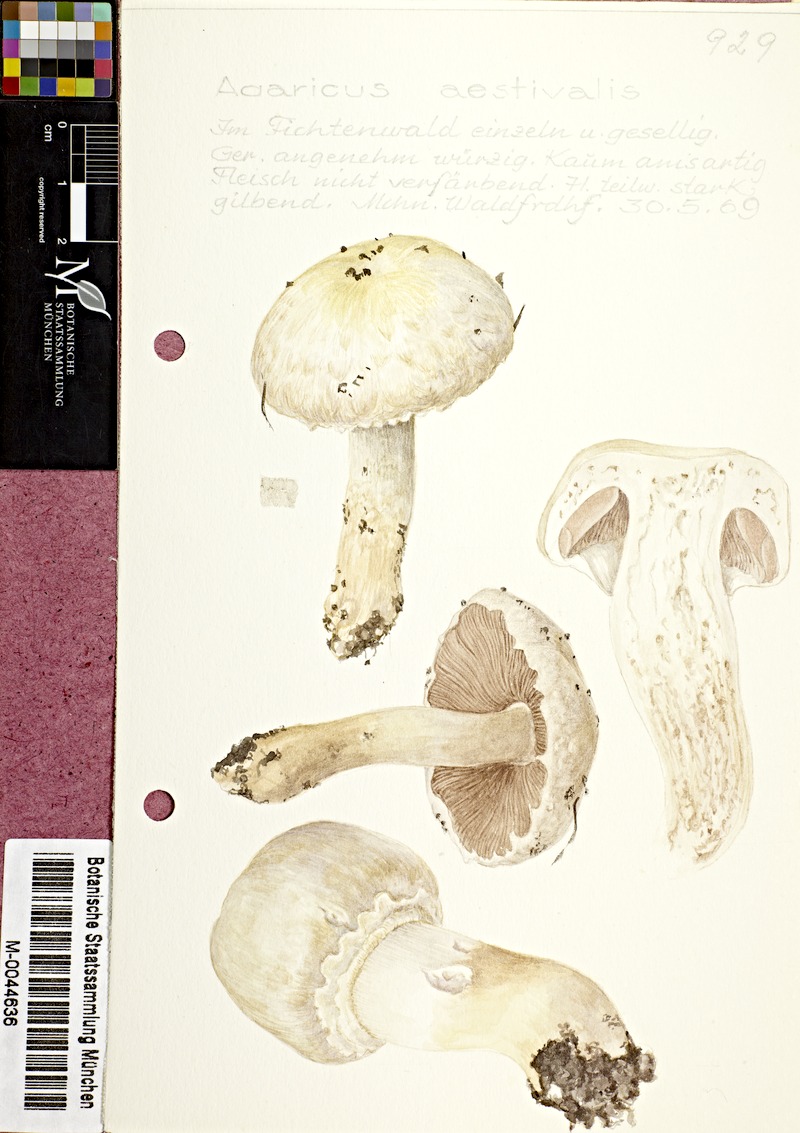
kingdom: Fungi
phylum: Basidiomycota
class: Agaricomycetes
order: Agaricales
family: Agaricaceae
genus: Agaricus
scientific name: Agaricus altipes
